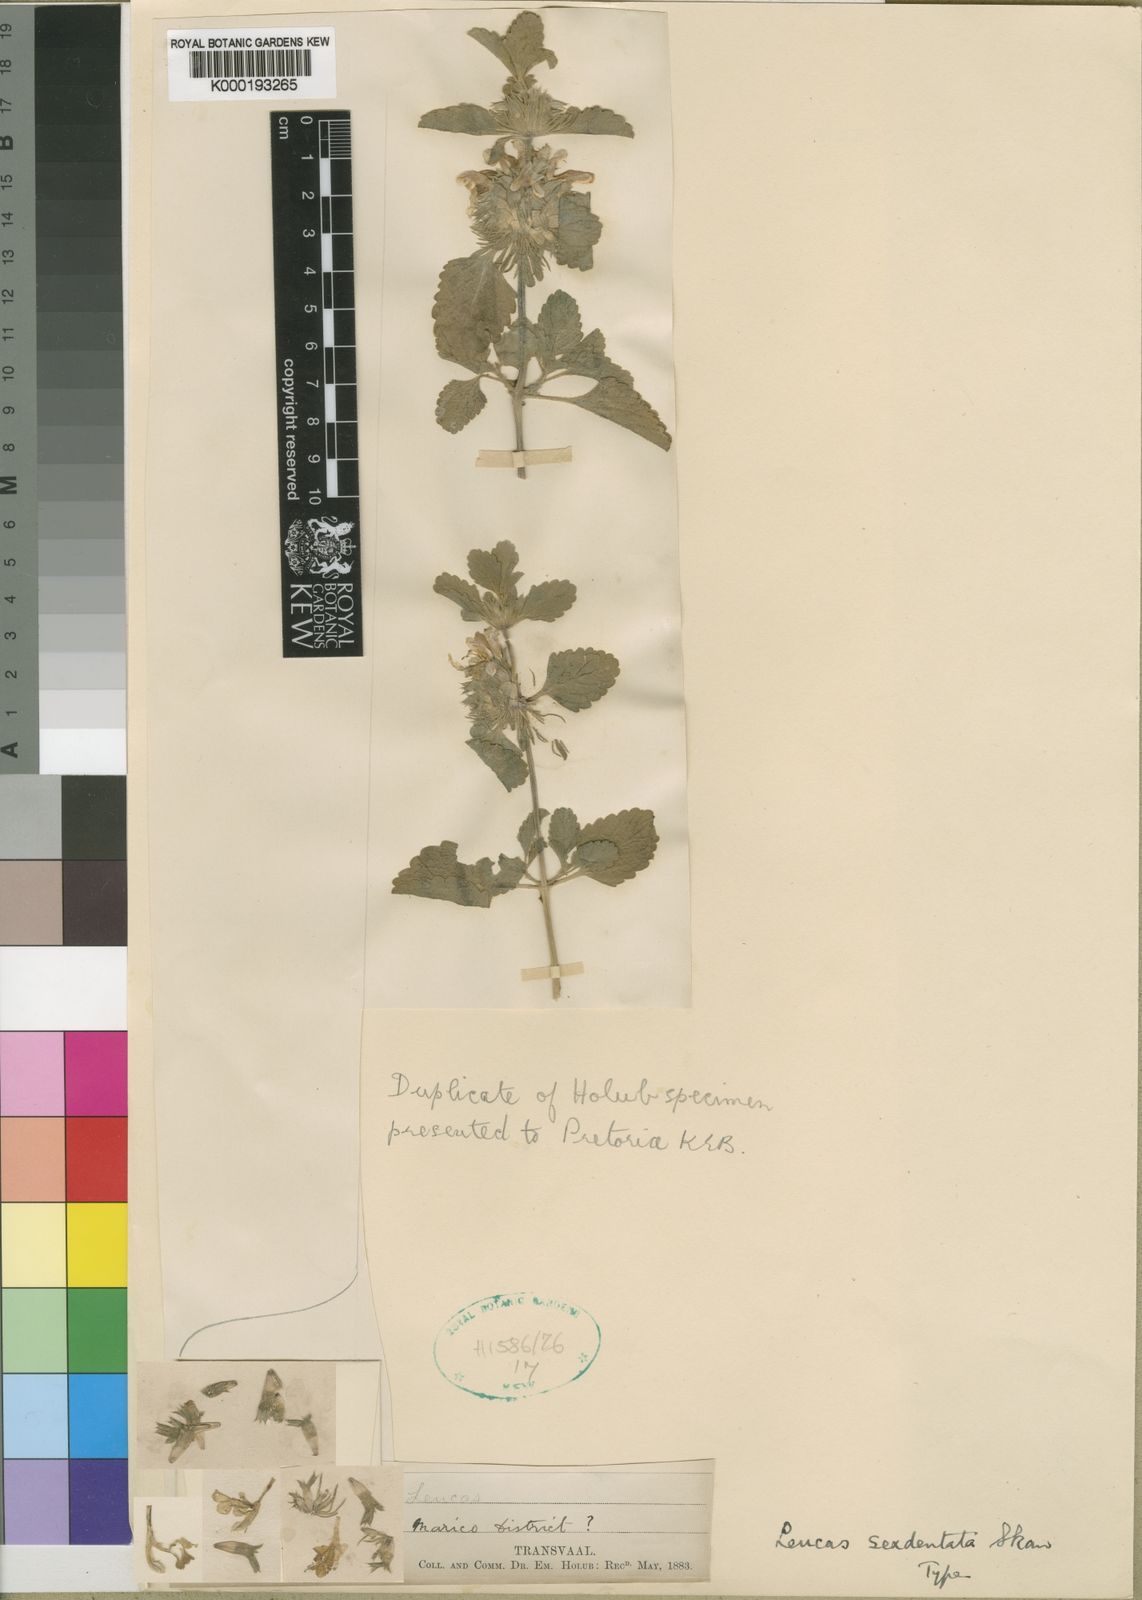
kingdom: Plantae
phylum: Tracheophyta
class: Magnoliopsida
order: Lamiales
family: Lamiaceae
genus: Leucas
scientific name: Leucas sexdentata
